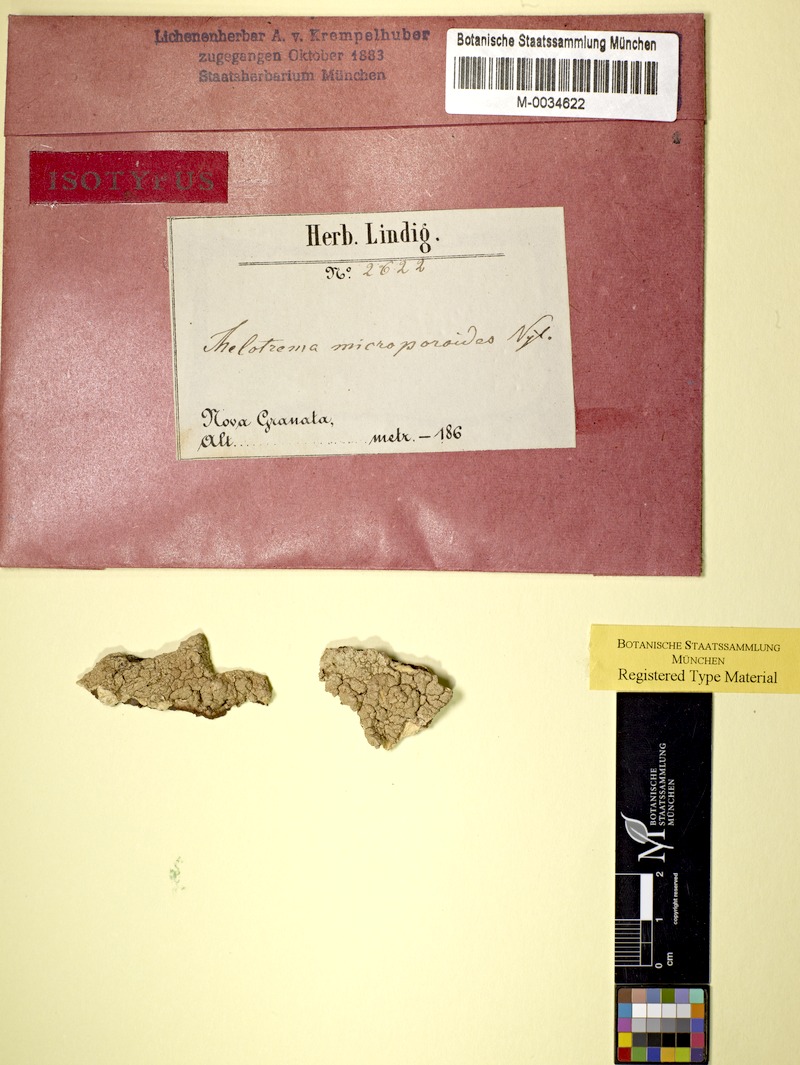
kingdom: Fungi
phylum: Ascomycota
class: Lecanoromycetes
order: Ostropales
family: Graphidaceae
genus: Thelotrema
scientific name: Thelotrema
